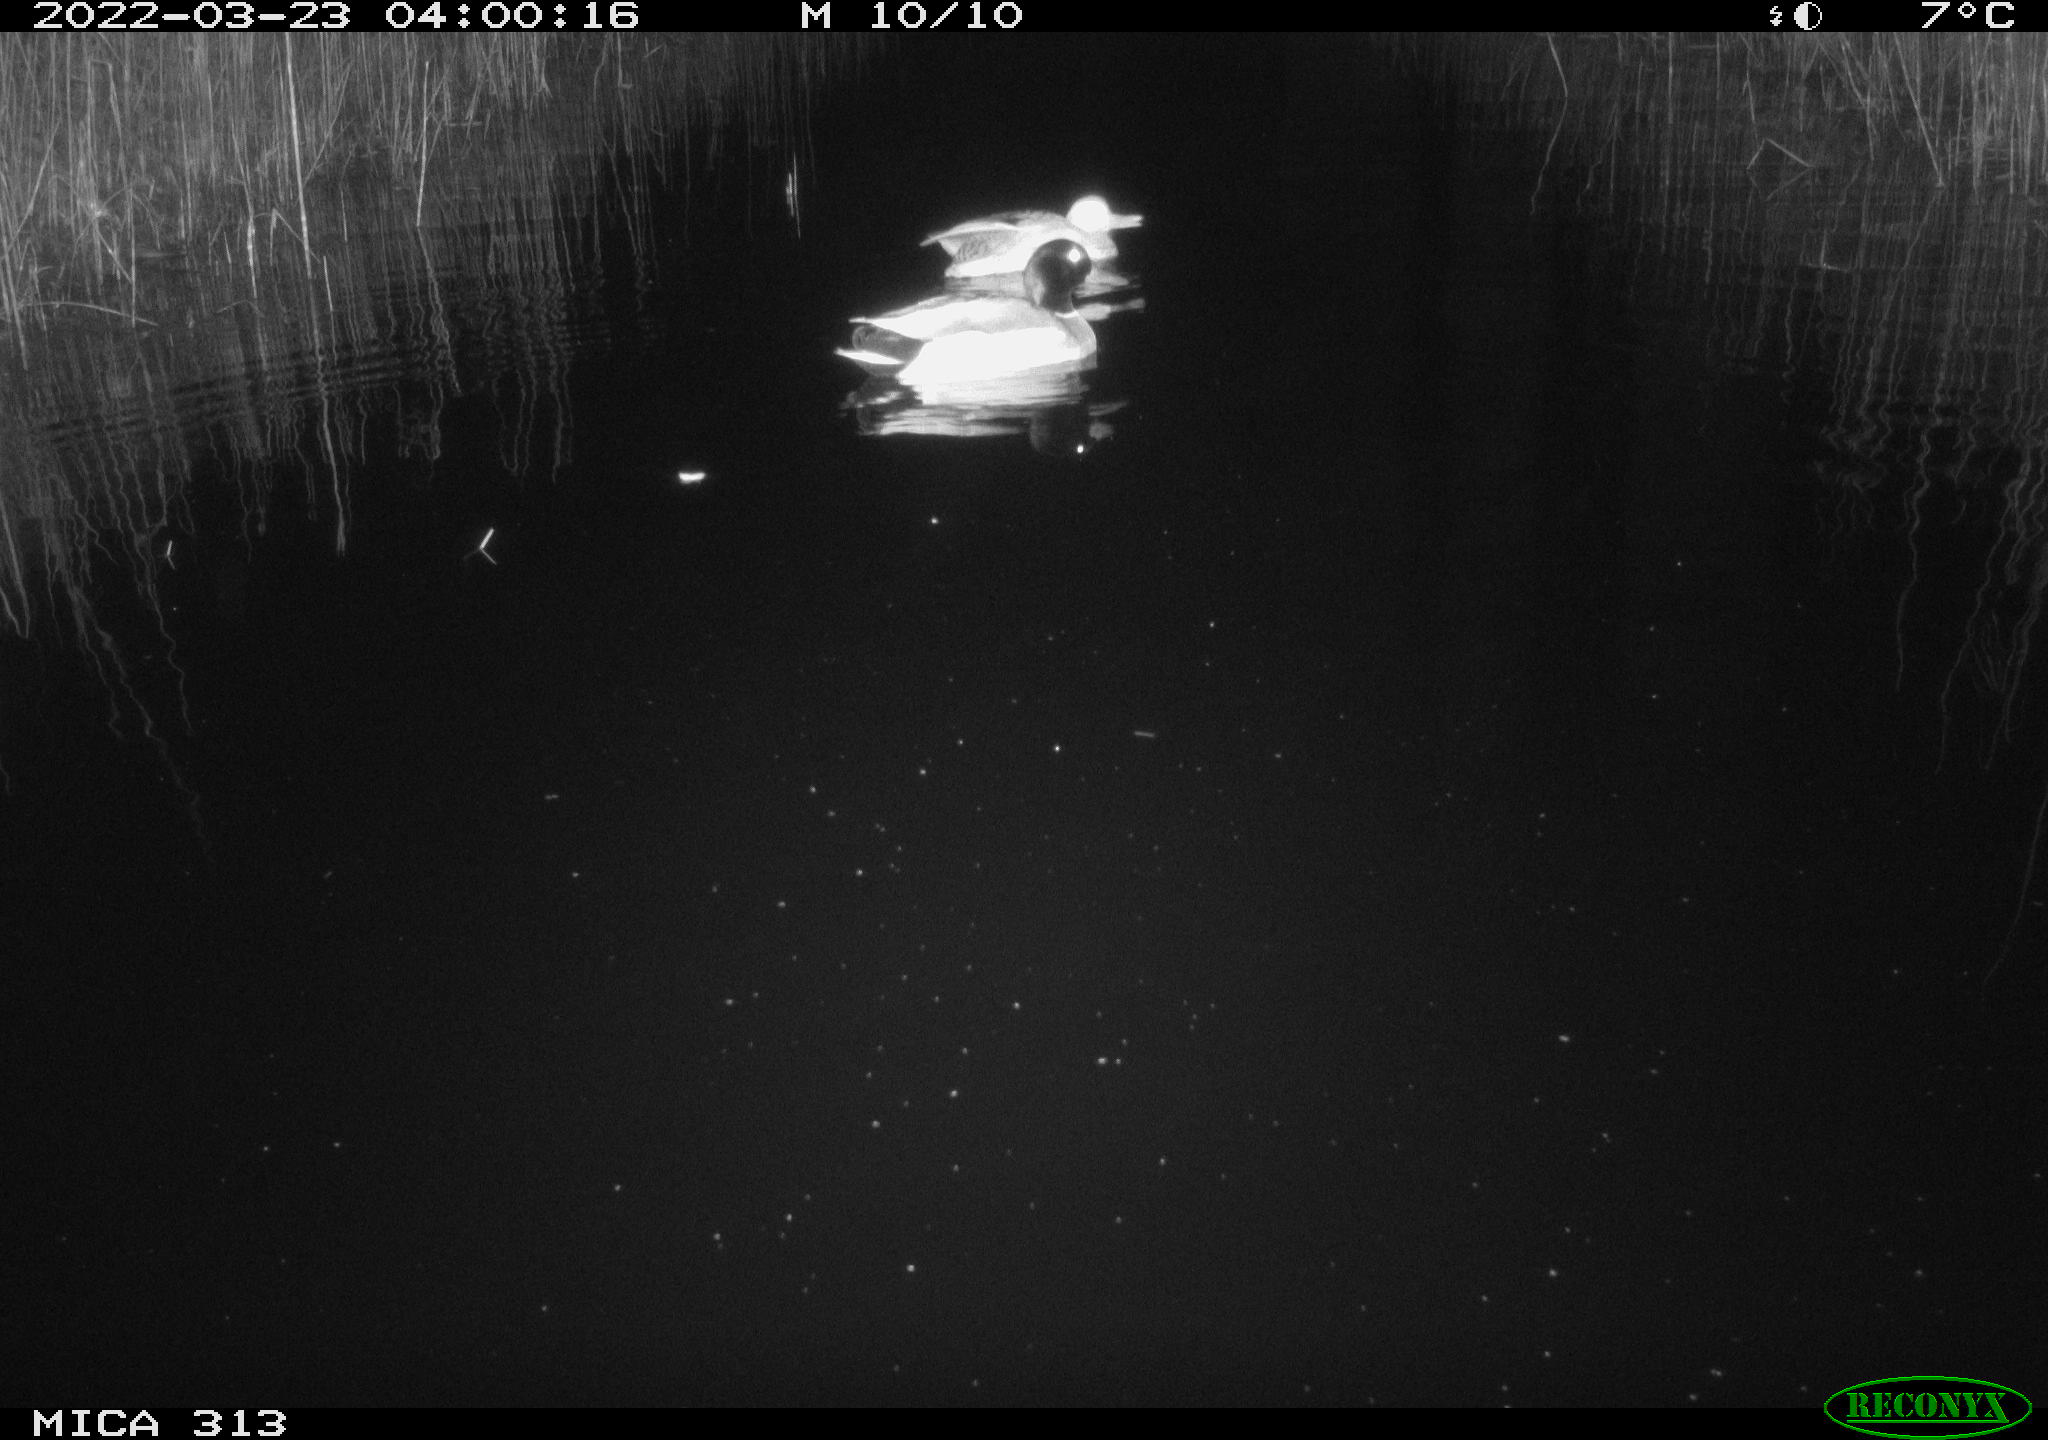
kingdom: Animalia
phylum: Chordata
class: Aves
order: Anseriformes
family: Anatidae
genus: Anas
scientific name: Anas platyrhynchos
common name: Mallard
